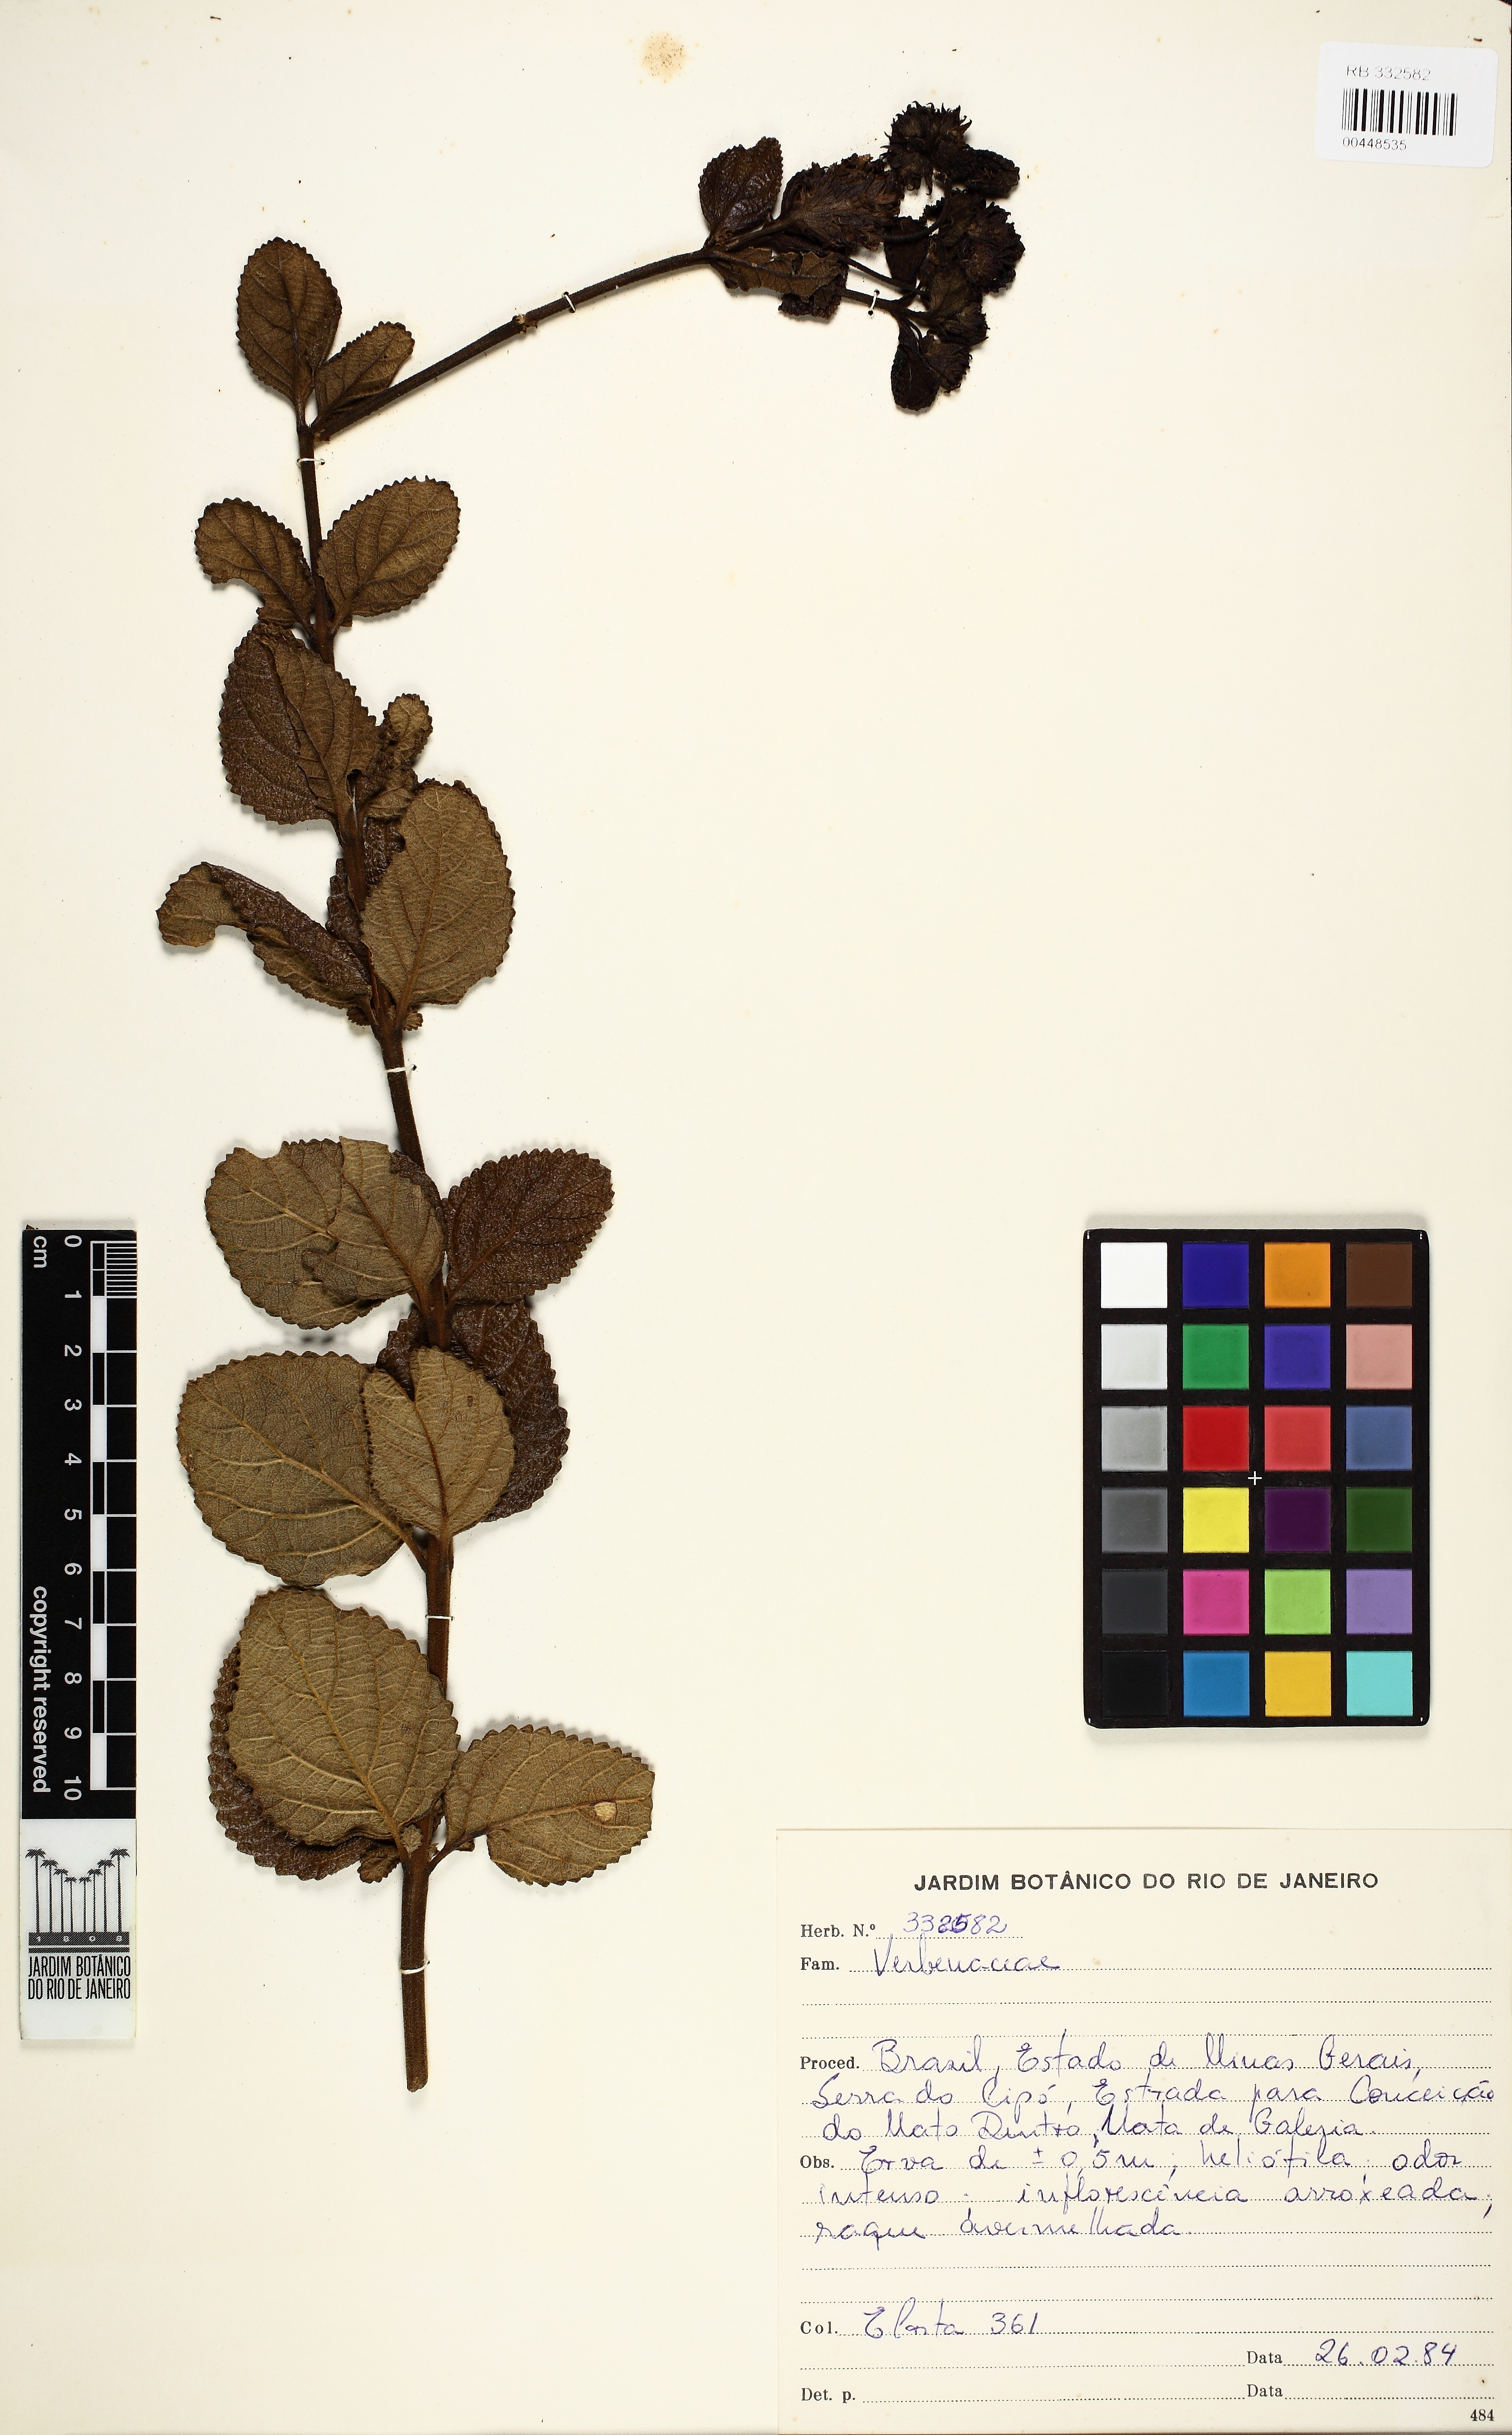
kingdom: Plantae
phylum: Tracheophyta
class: Magnoliopsida
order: Lamiales
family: Verbenaceae
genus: Lippia
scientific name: Lippia
